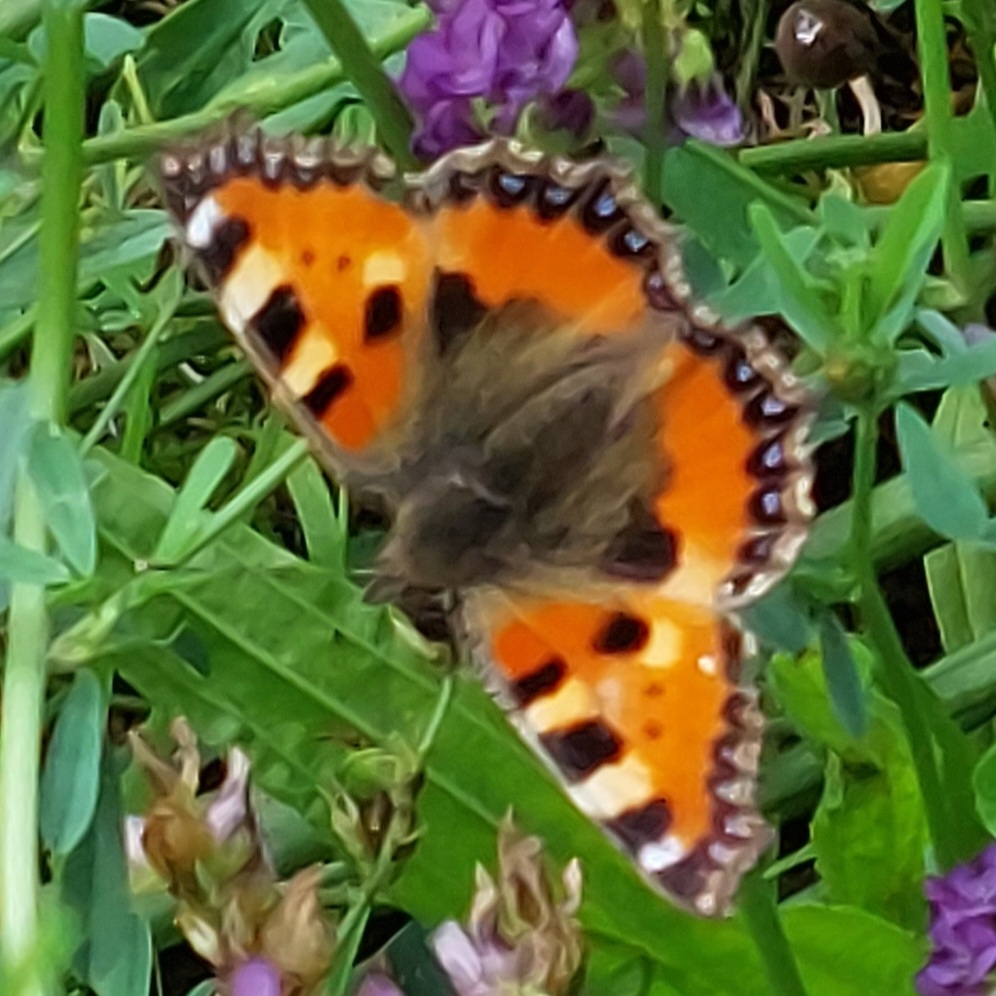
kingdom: Animalia
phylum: Arthropoda
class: Insecta
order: Lepidoptera
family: Nymphalidae
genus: Aglais
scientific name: Aglais urticae
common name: Nældens takvinge
